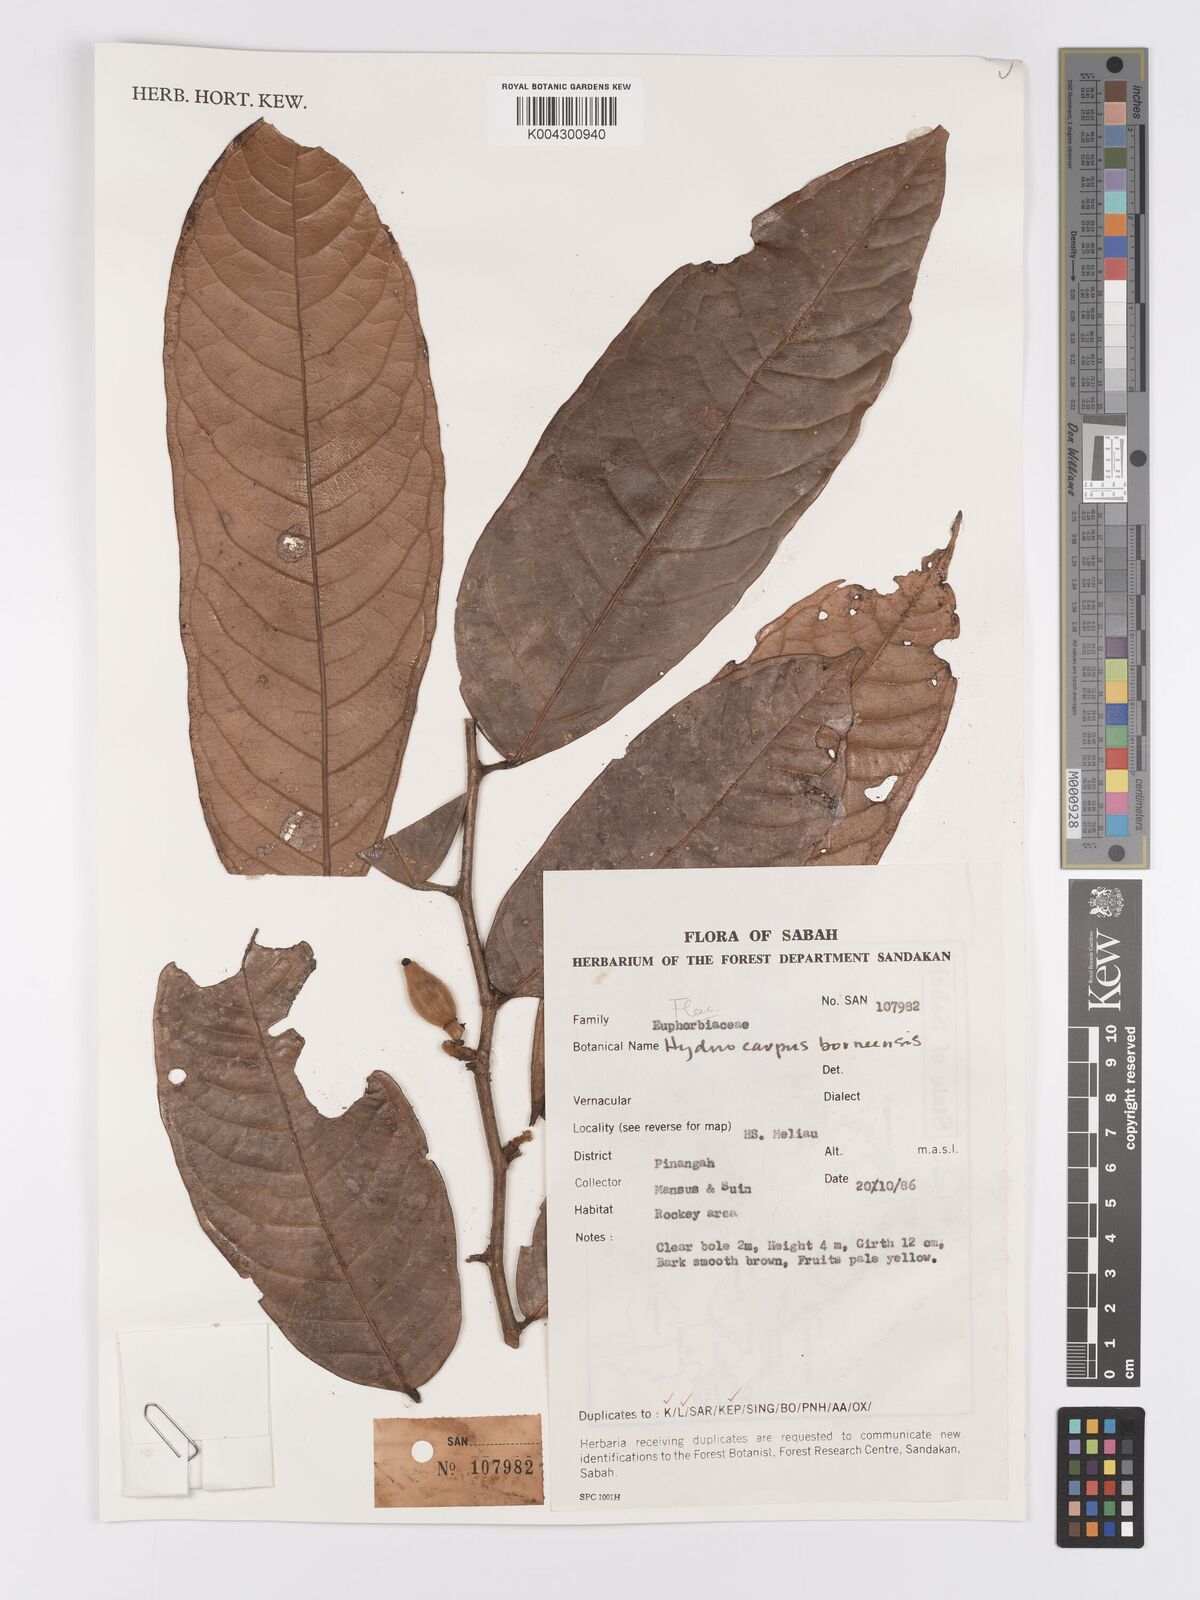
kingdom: Plantae
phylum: Tracheophyta
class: Magnoliopsida
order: Malpighiales
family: Achariaceae
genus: Hydnocarpus
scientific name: Hydnocarpus borneensis
